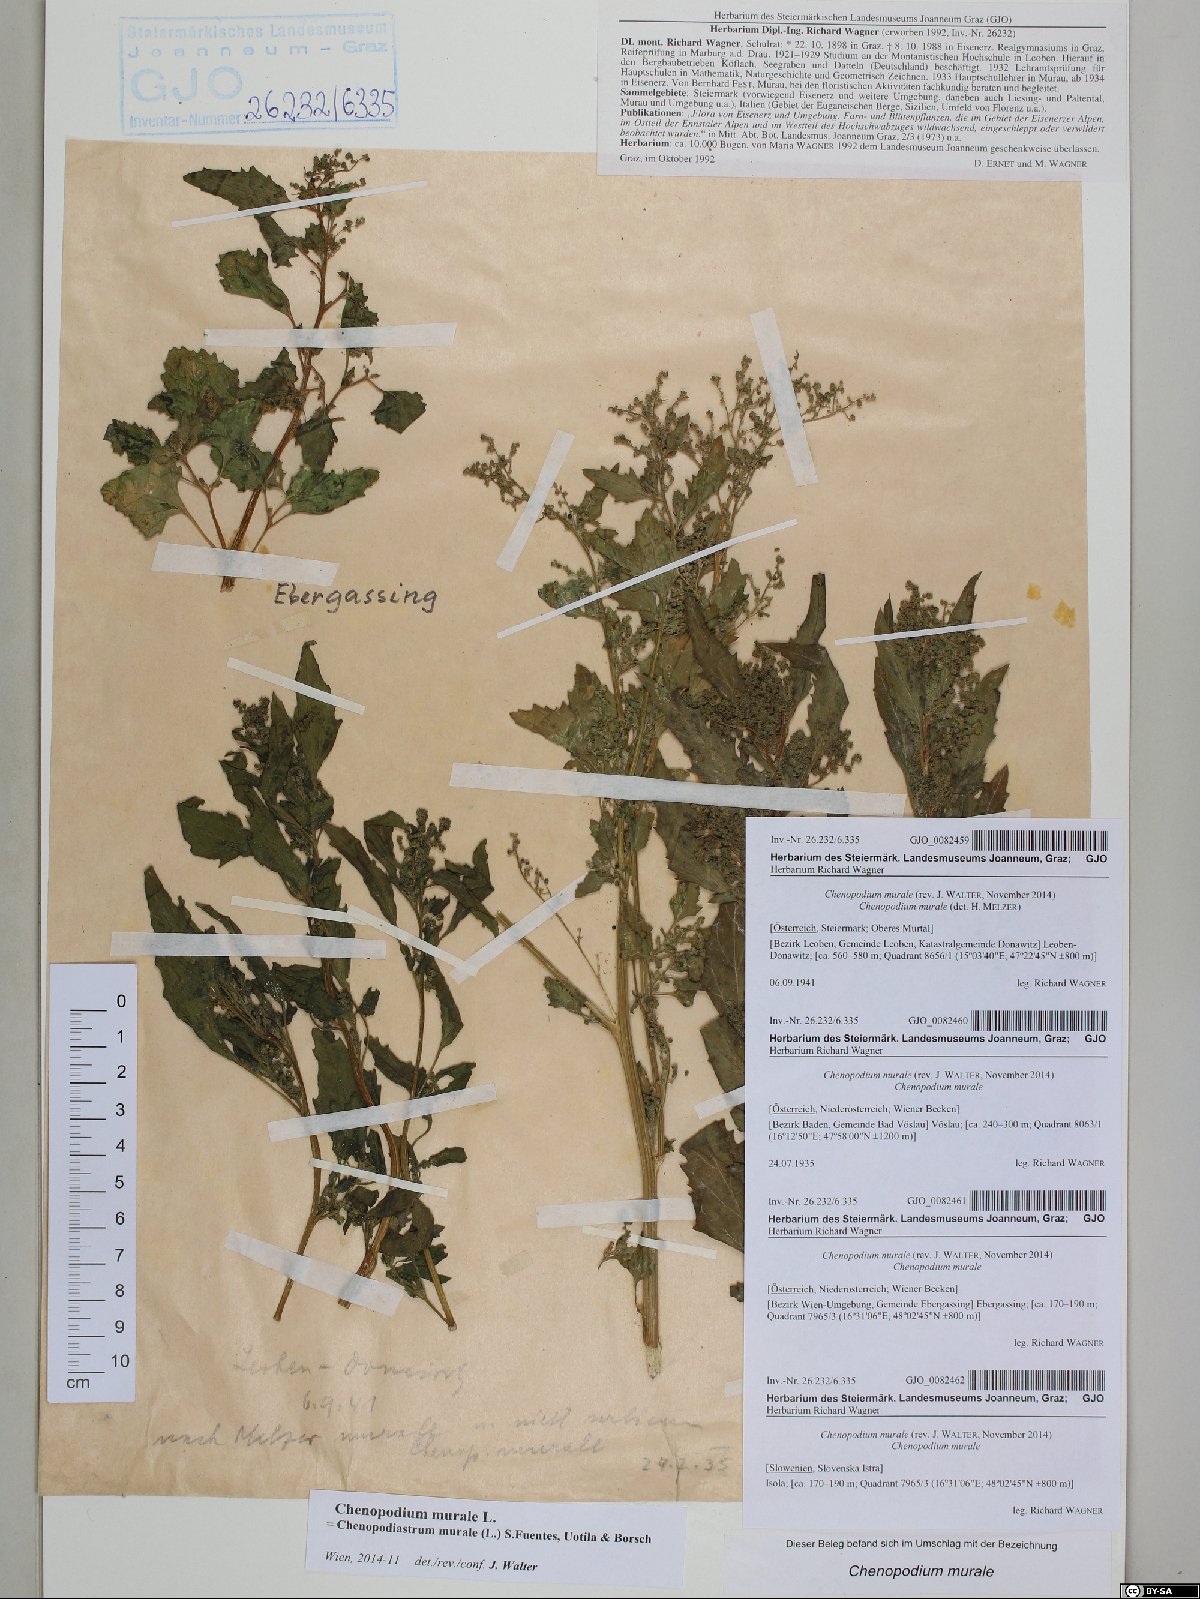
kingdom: Plantae
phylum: Tracheophyta
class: Magnoliopsida
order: Caryophyllales
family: Amaranthaceae
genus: Chenopodiastrum
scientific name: Chenopodiastrum murale
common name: Sowbane
